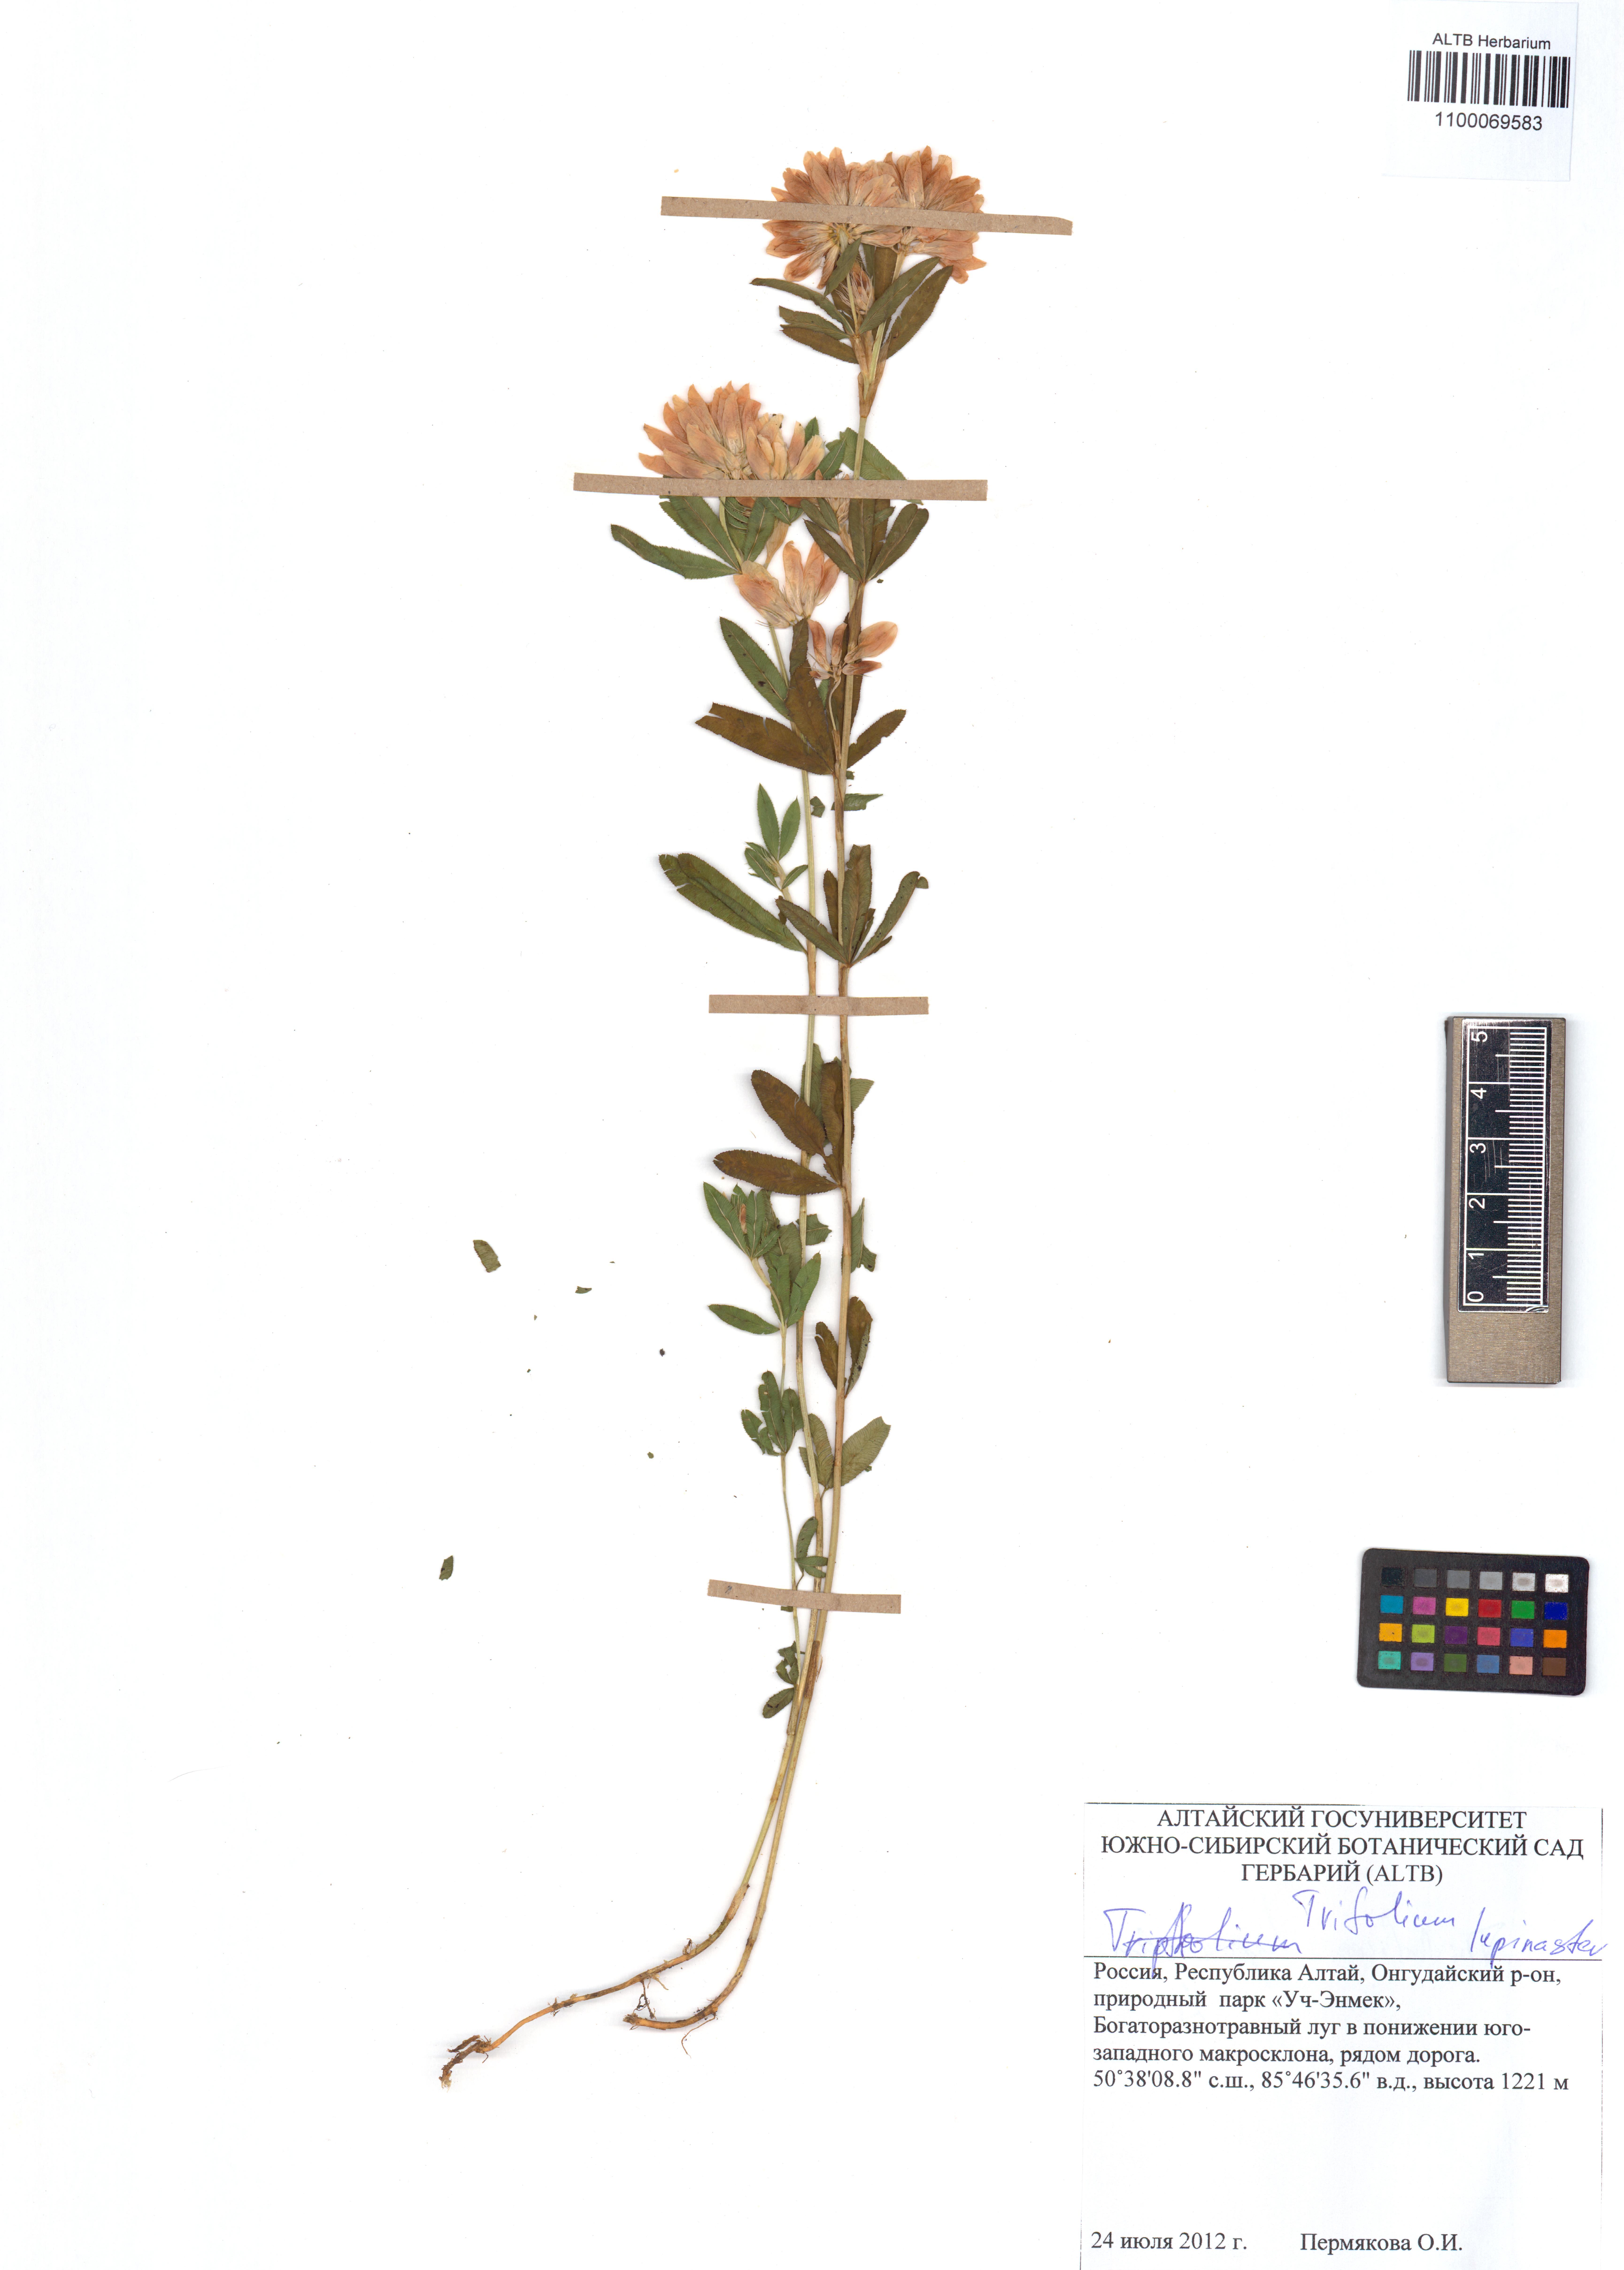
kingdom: Plantae
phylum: Tracheophyta
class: Magnoliopsida
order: Fabales
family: Fabaceae
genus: Trifolium
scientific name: Trifolium lupinaster
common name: Lupine clover
